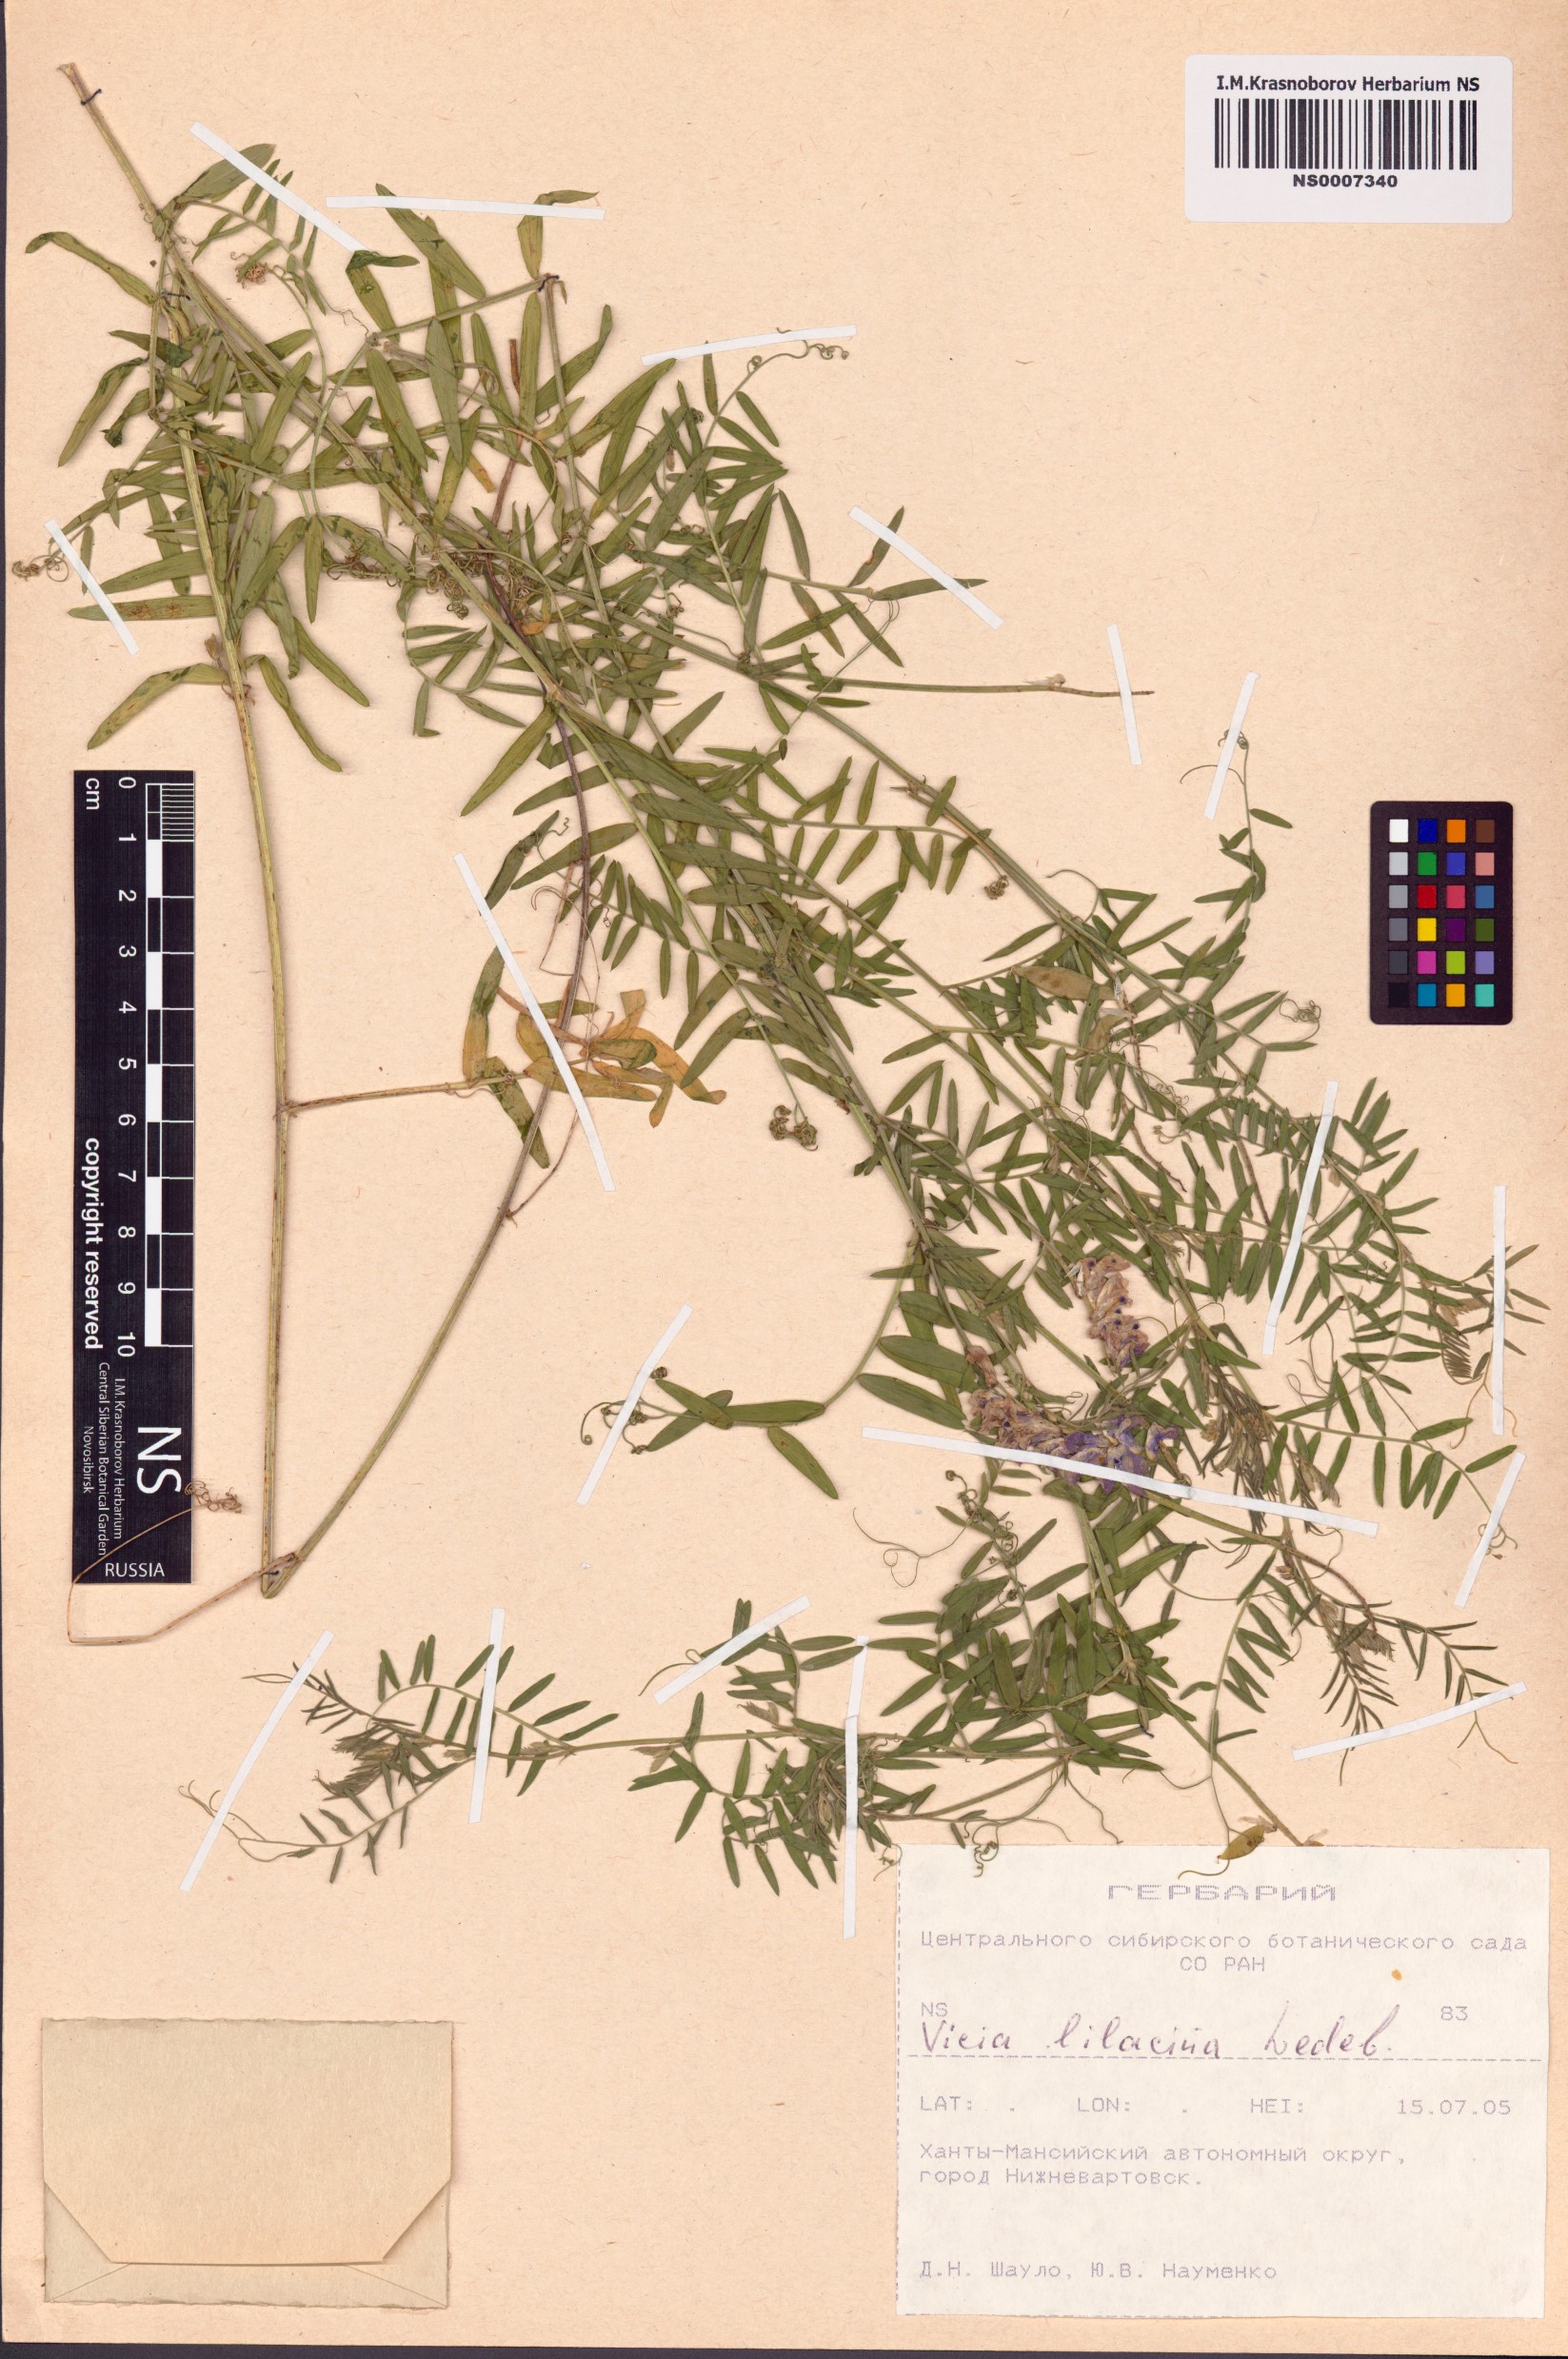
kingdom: Plantae
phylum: Tracheophyta
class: Magnoliopsida
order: Fabales
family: Fabaceae
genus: Vicia
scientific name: Vicia lilacina
